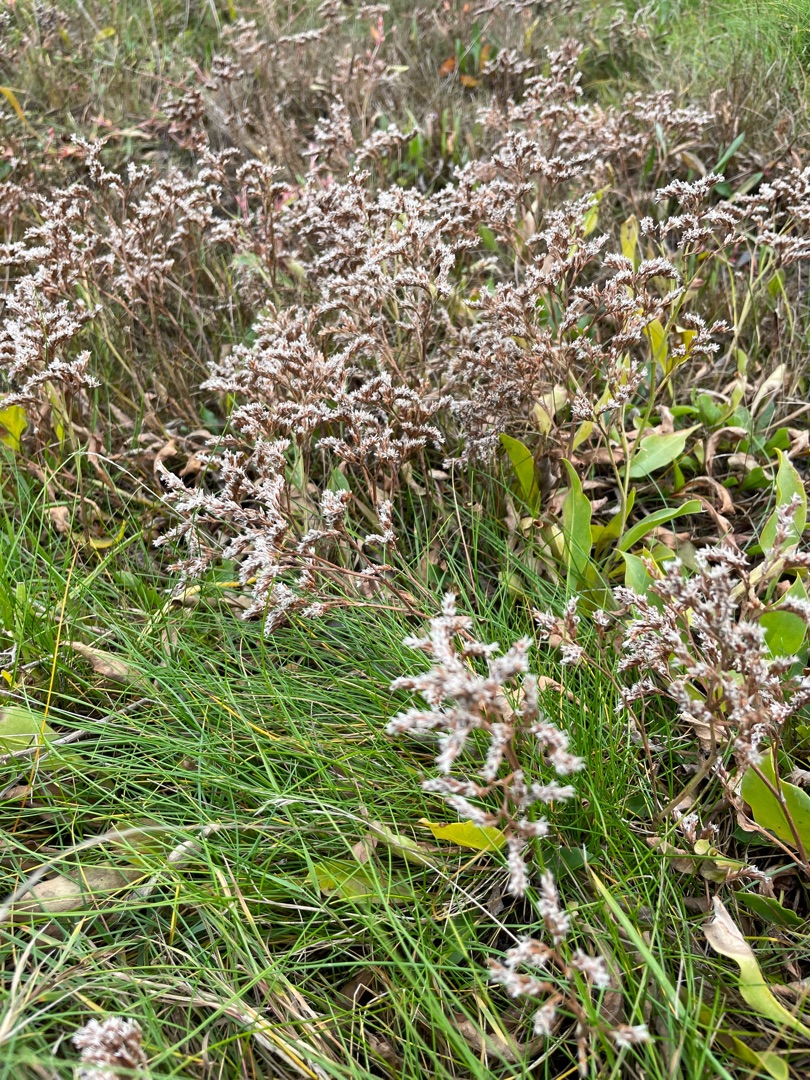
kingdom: Plantae
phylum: Tracheophyta
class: Magnoliopsida
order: Caryophyllales
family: Plumbaginaceae
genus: Limonium
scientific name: Limonium vulgare
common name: Tætblomstret hindebæger
